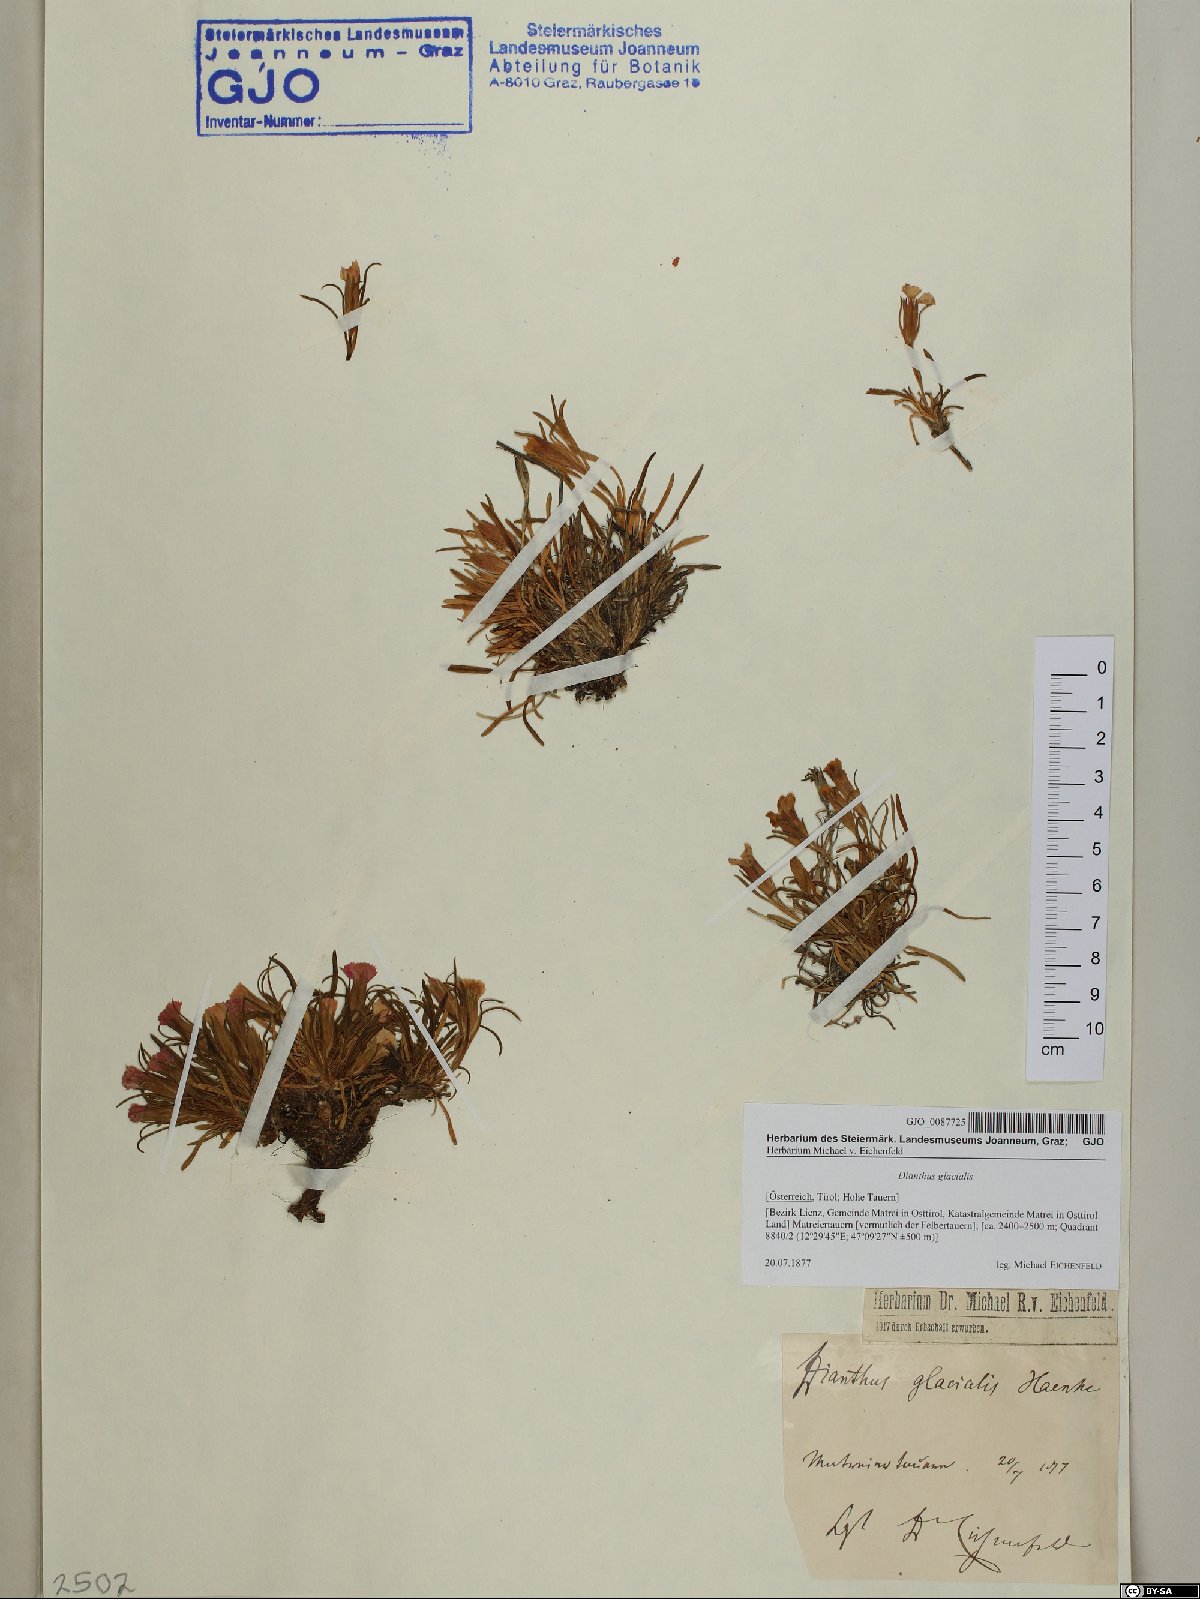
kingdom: Plantae
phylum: Tracheophyta
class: Magnoliopsida
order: Caryophyllales
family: Caryophyllaceae
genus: Dianthus
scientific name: Dianthus glacialis
